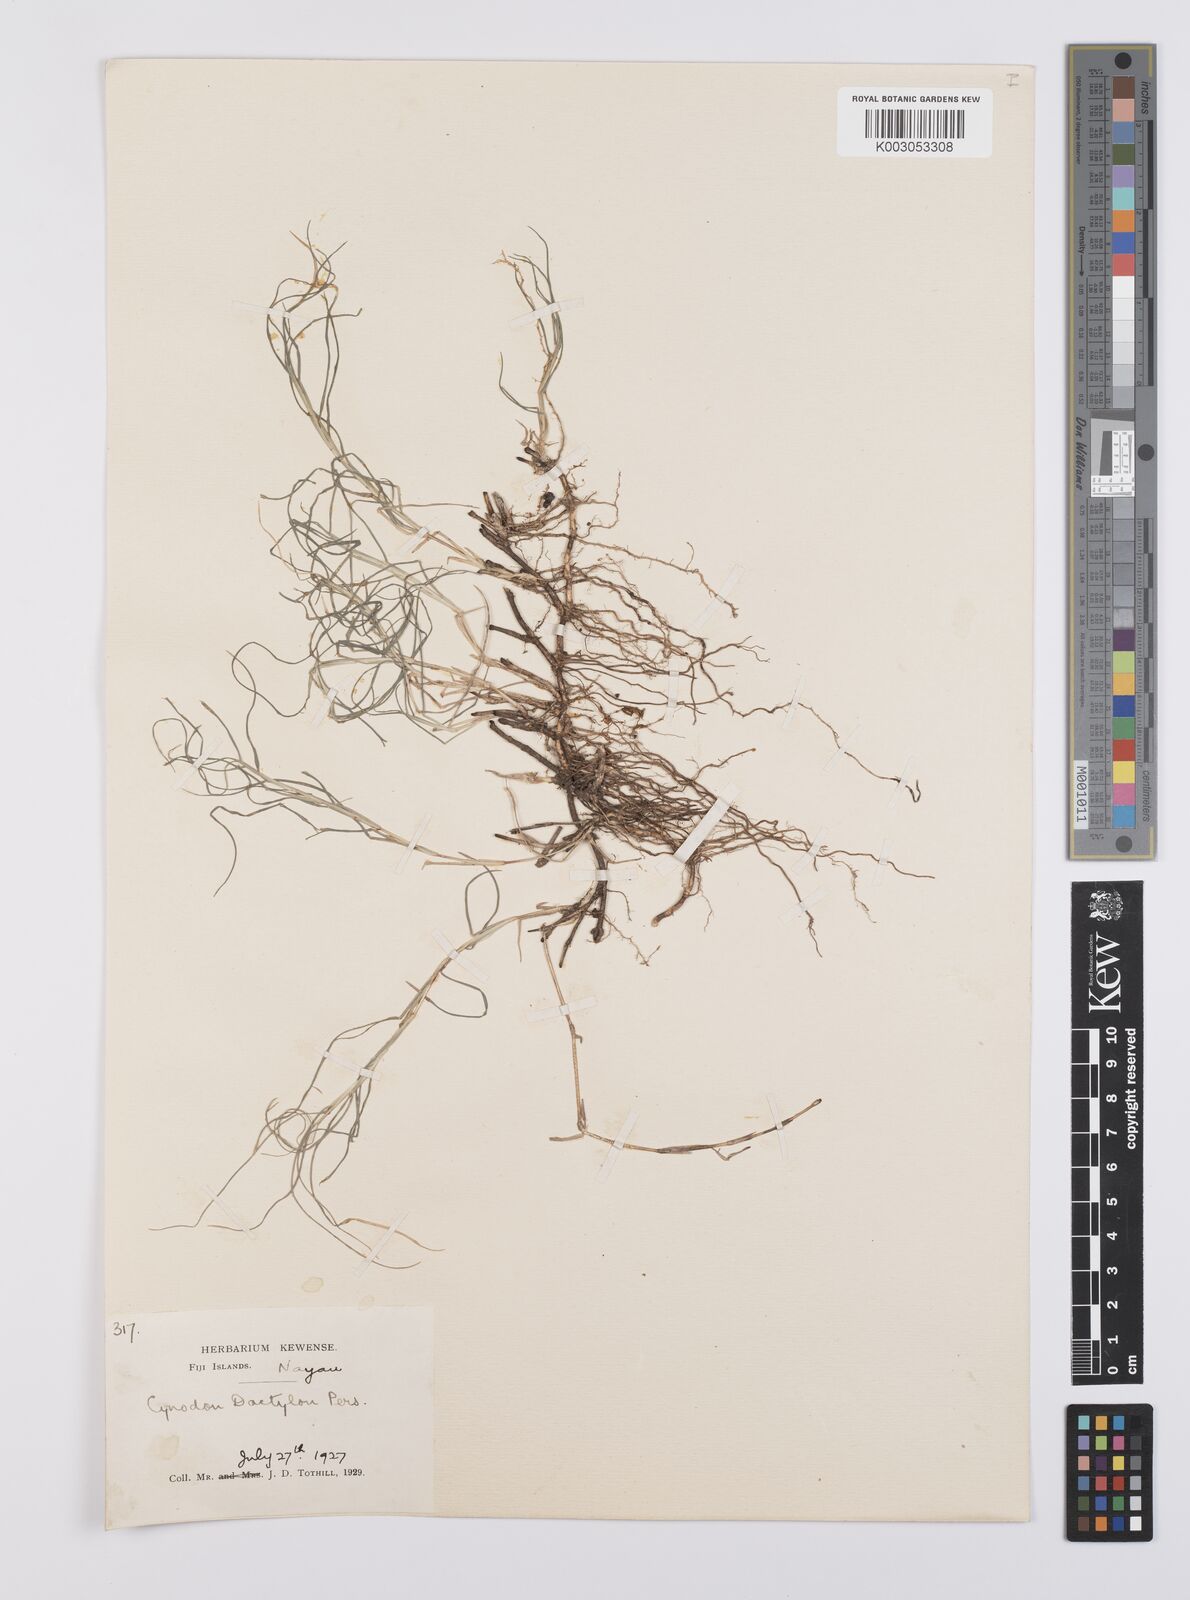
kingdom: Plantae
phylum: Tracheophyta
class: Liliopsida
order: Poales
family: Poaceae
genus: Cynodon
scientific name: Cynodon dactylon
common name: Bermuda grass
